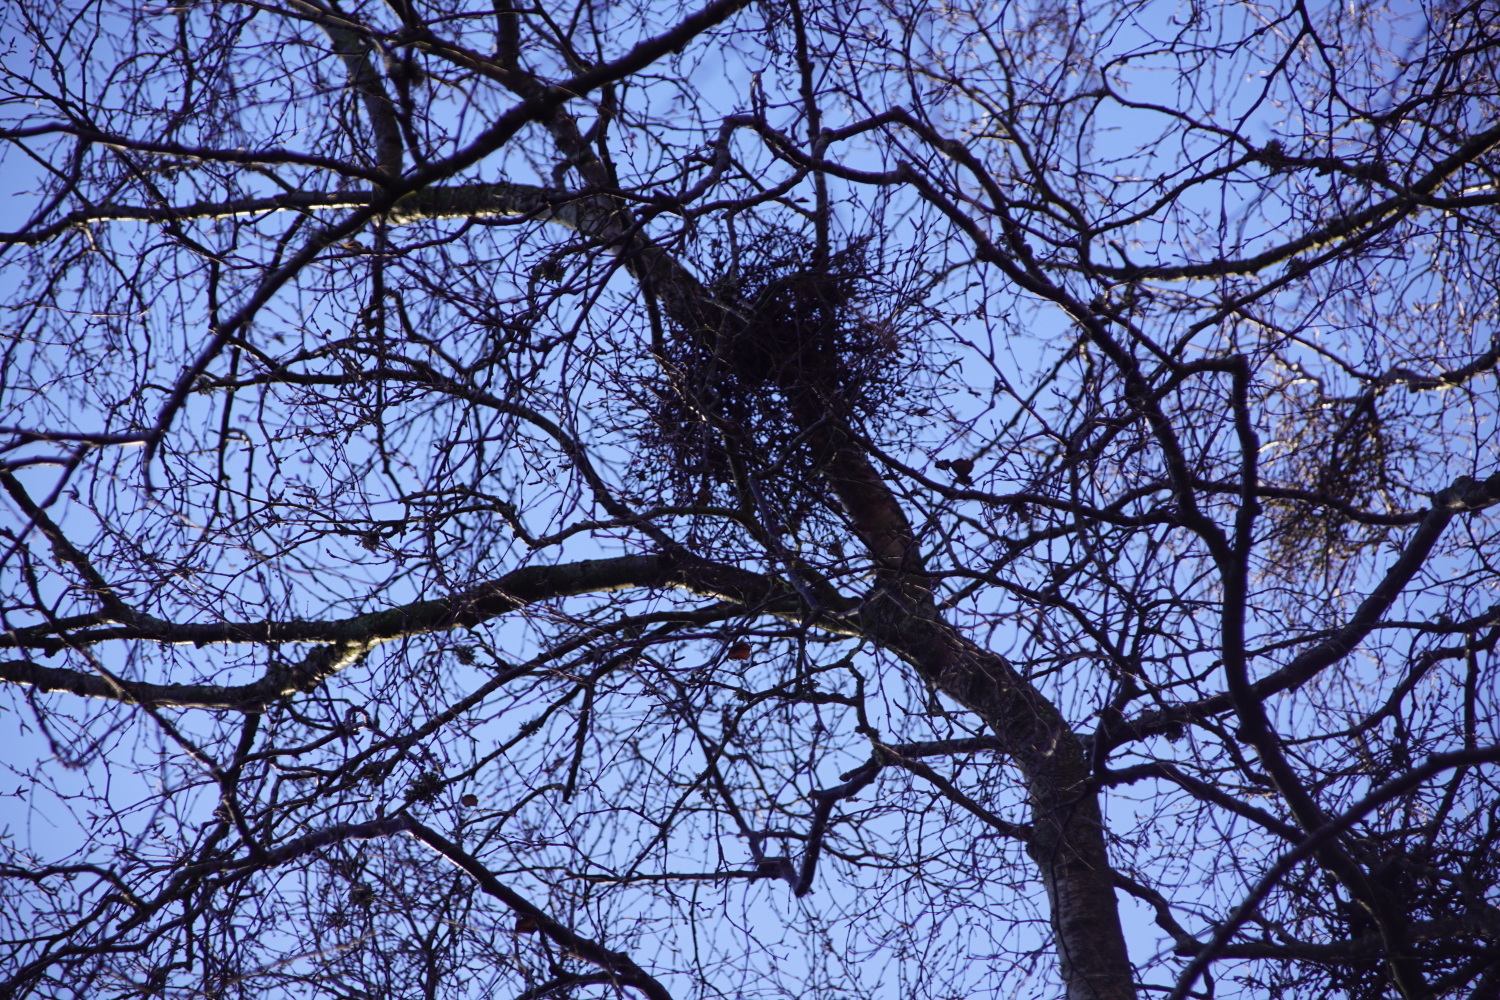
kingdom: Fungi
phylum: Ascomycota
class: Taphrinomycetes
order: Taphrinales
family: Taphrinaceae
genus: Taphrina
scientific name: Taphrina betulina
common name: hekse-sækdug
